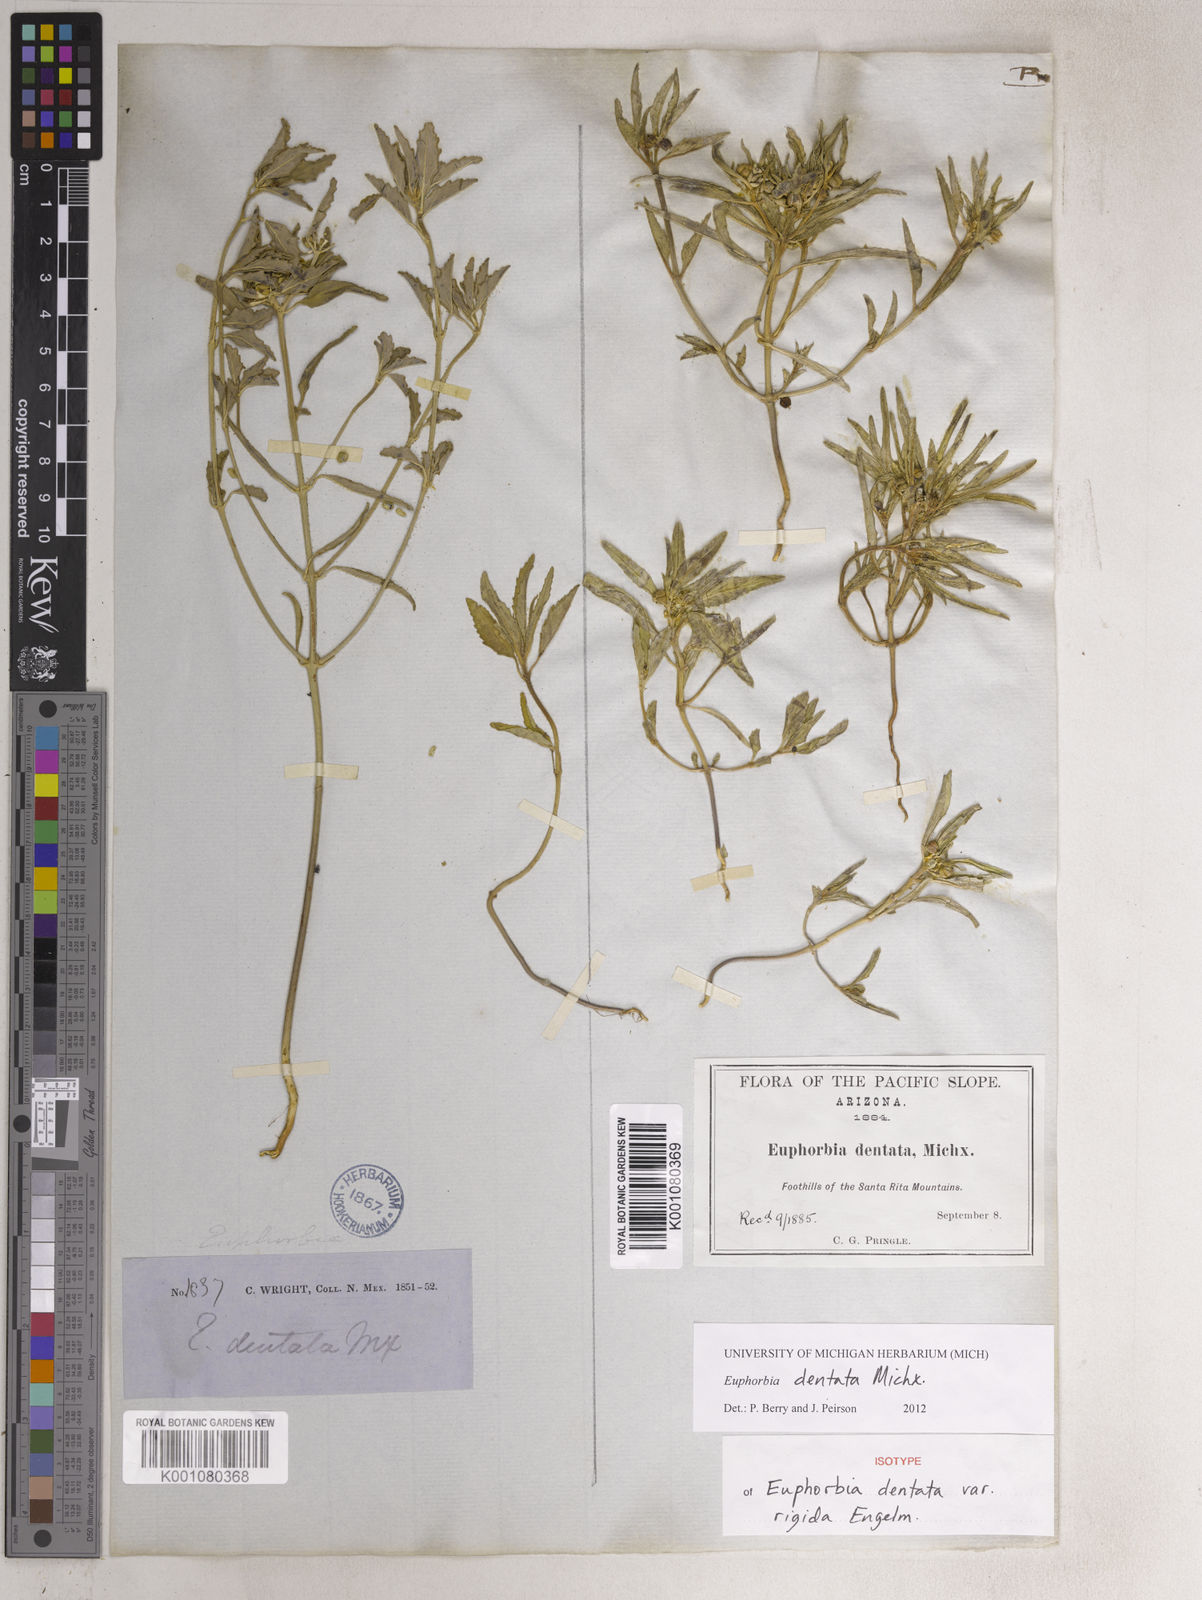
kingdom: Plantae
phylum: Tracheophyta
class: Magnoliopsida
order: Malpighiales
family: Euphorbiaceae
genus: Euphorbia
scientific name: Euphorbia dentata
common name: Dentate spurge
